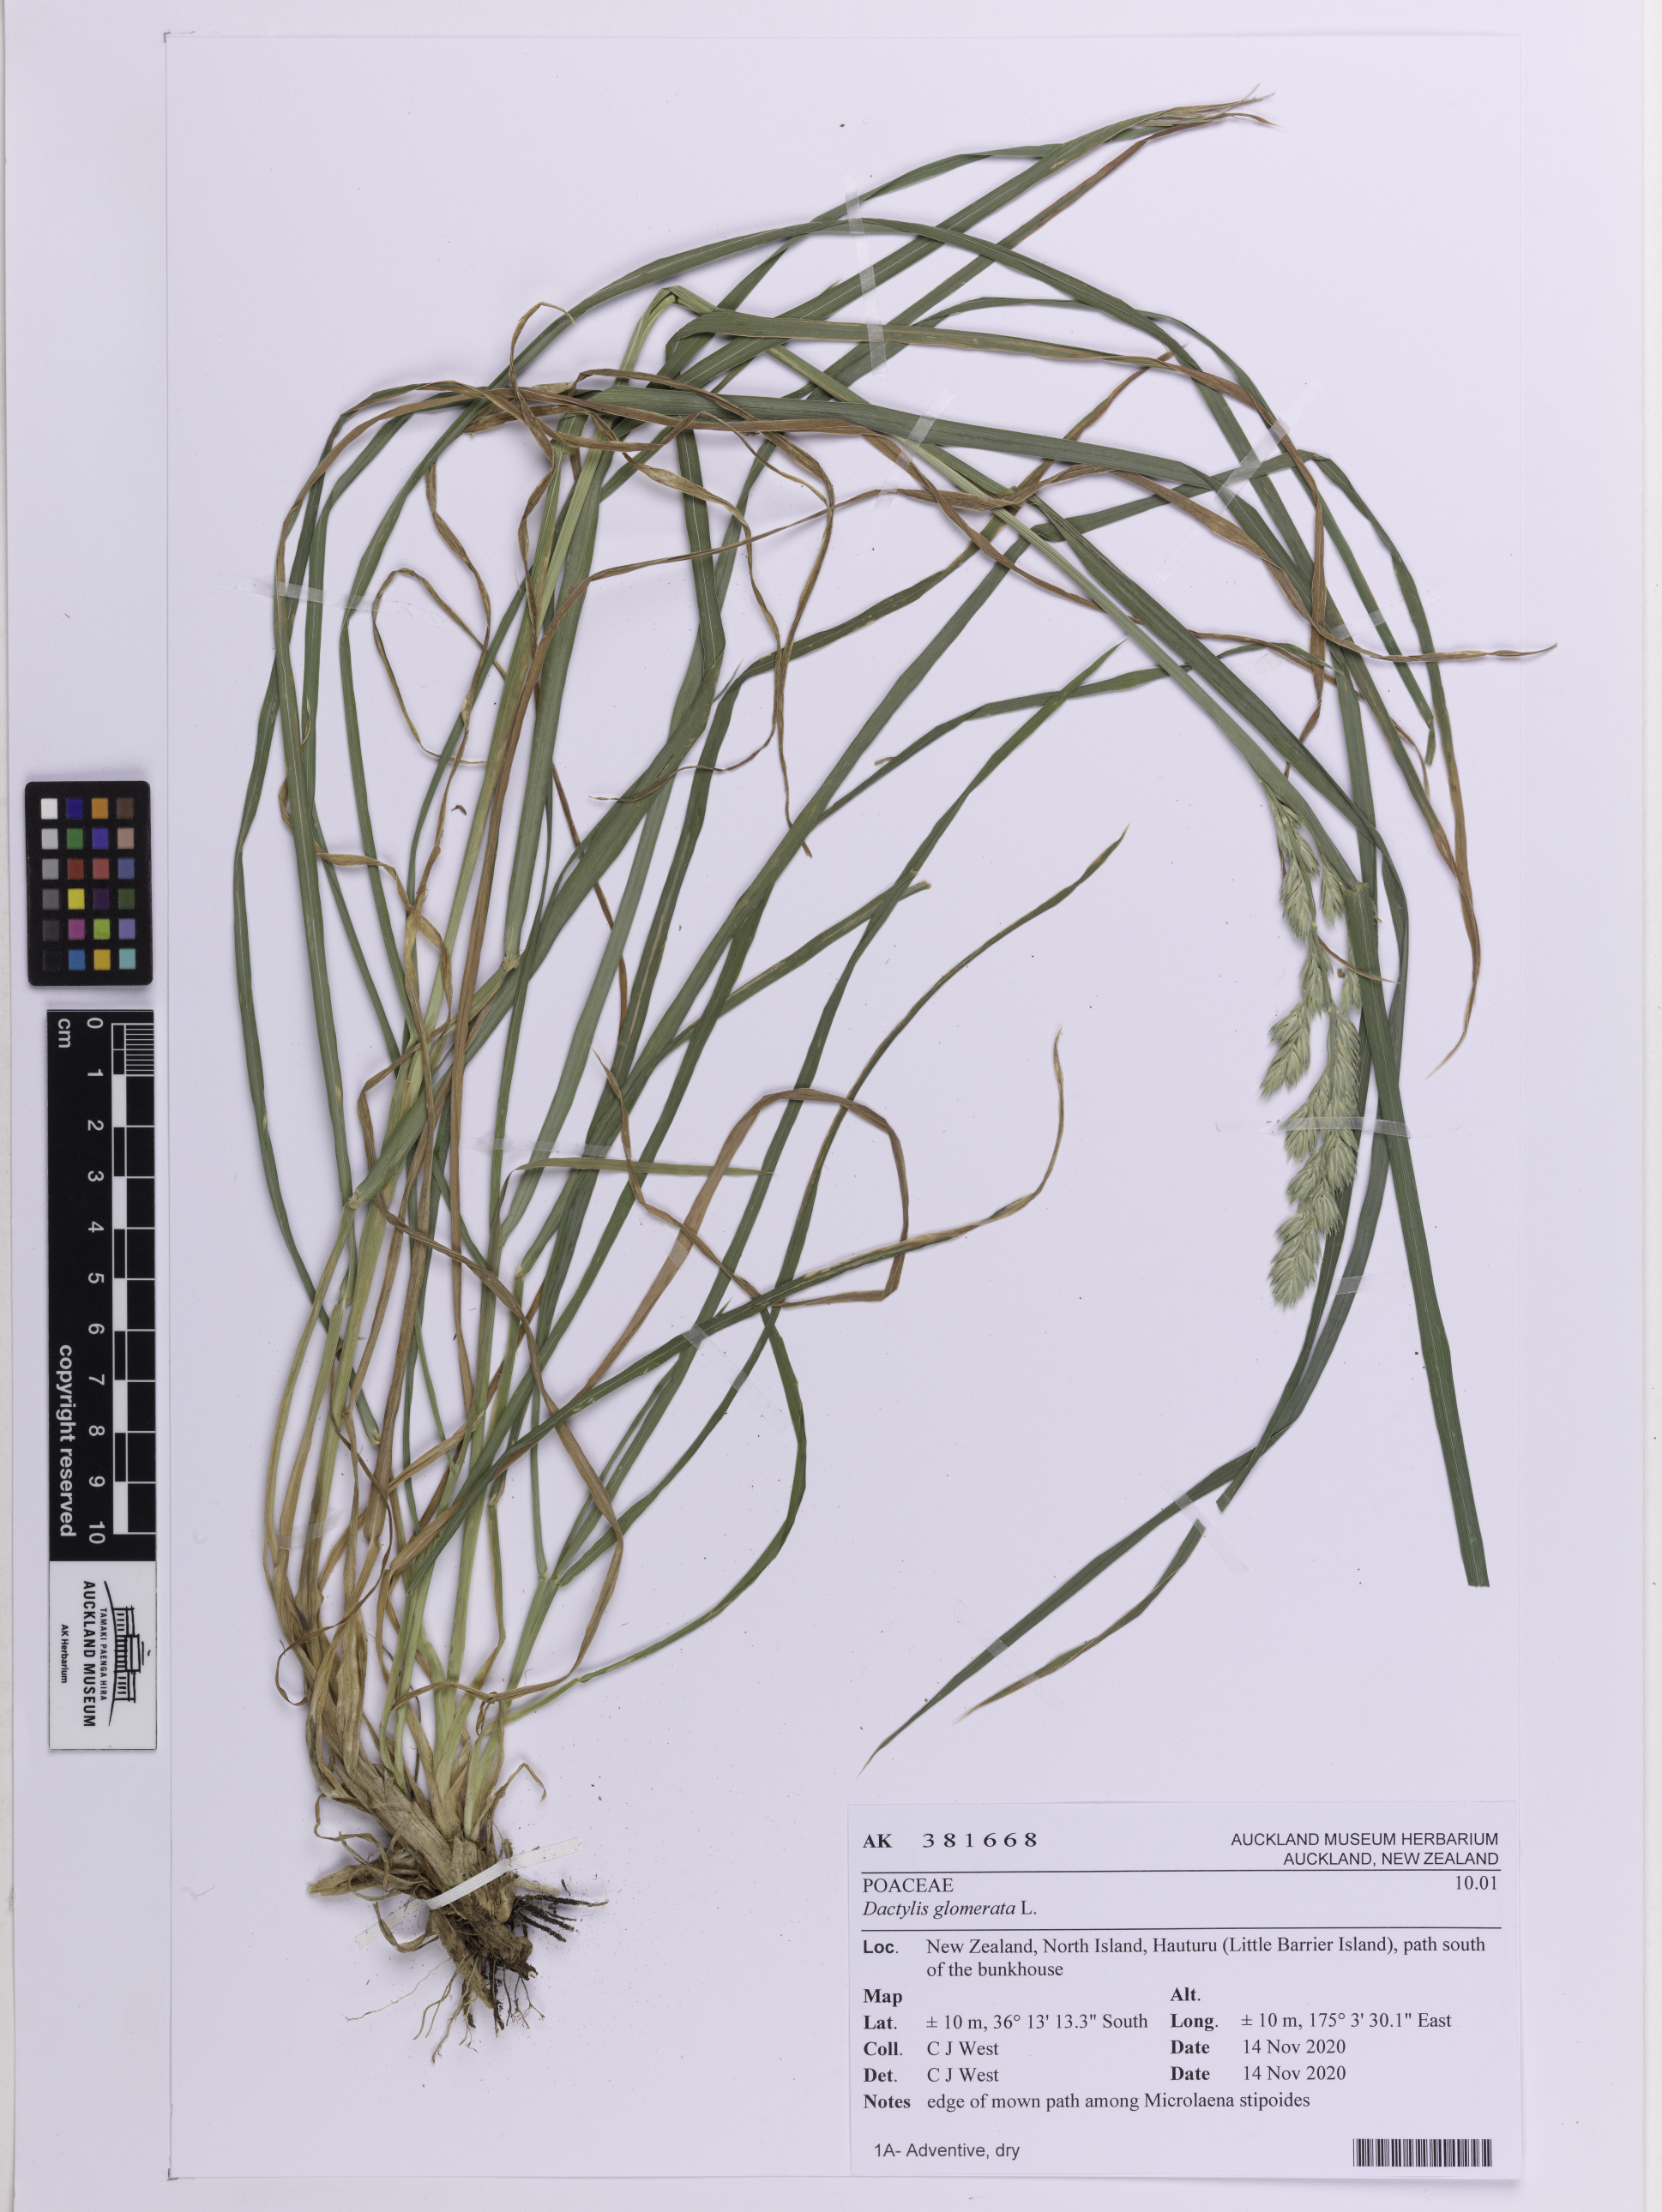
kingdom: Plantae
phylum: Tracheophyta
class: Liliopsida
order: Poales
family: Poaceae
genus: Dactylis
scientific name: Dactylis glomerata
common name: Orchardgrass
